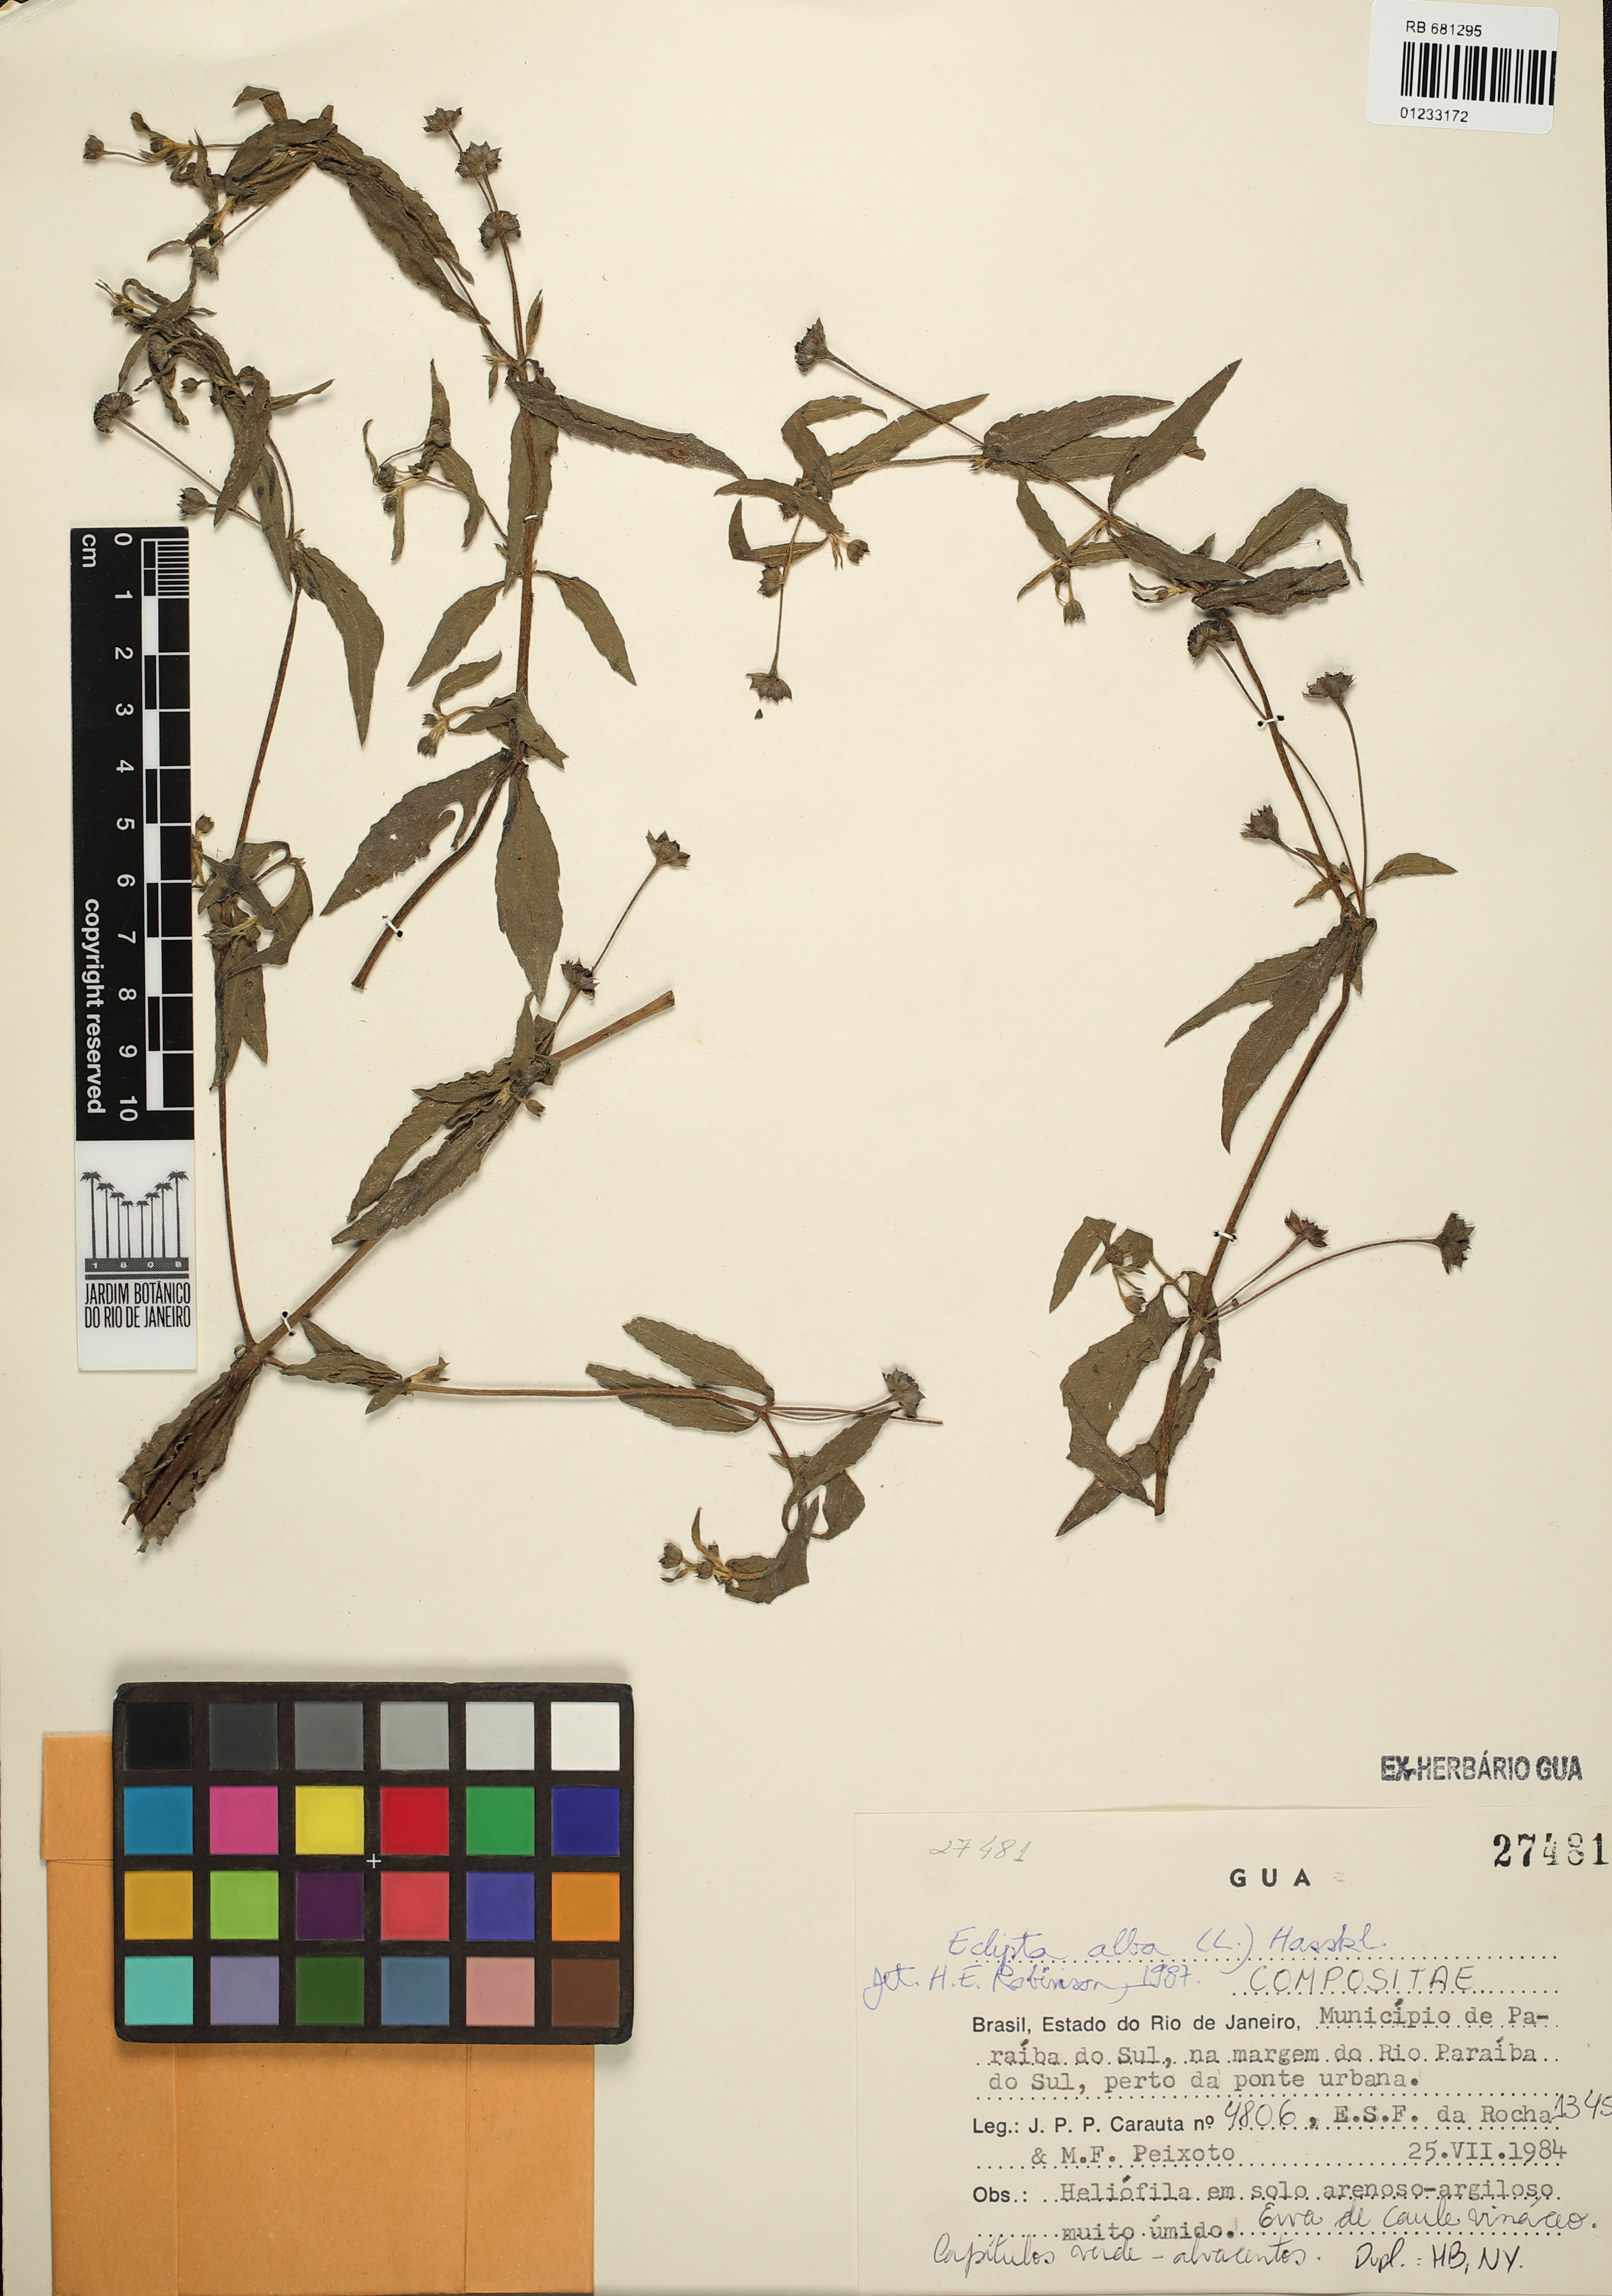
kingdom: Plantae
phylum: Tracheophyta
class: Magnoliopsida
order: Asterales
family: Asteraceae
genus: Eclipta
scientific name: Eclipta alba
